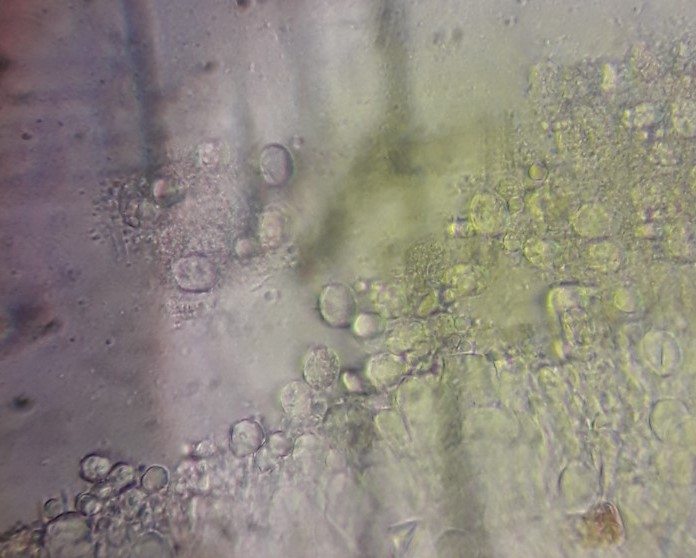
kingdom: Fungi
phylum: Basidiomycota
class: Agaricomycetes
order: Agaricales
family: Radulomycetaceae
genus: Radulomyces
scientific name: Radulomyces confluens
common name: glat naftalinskind
